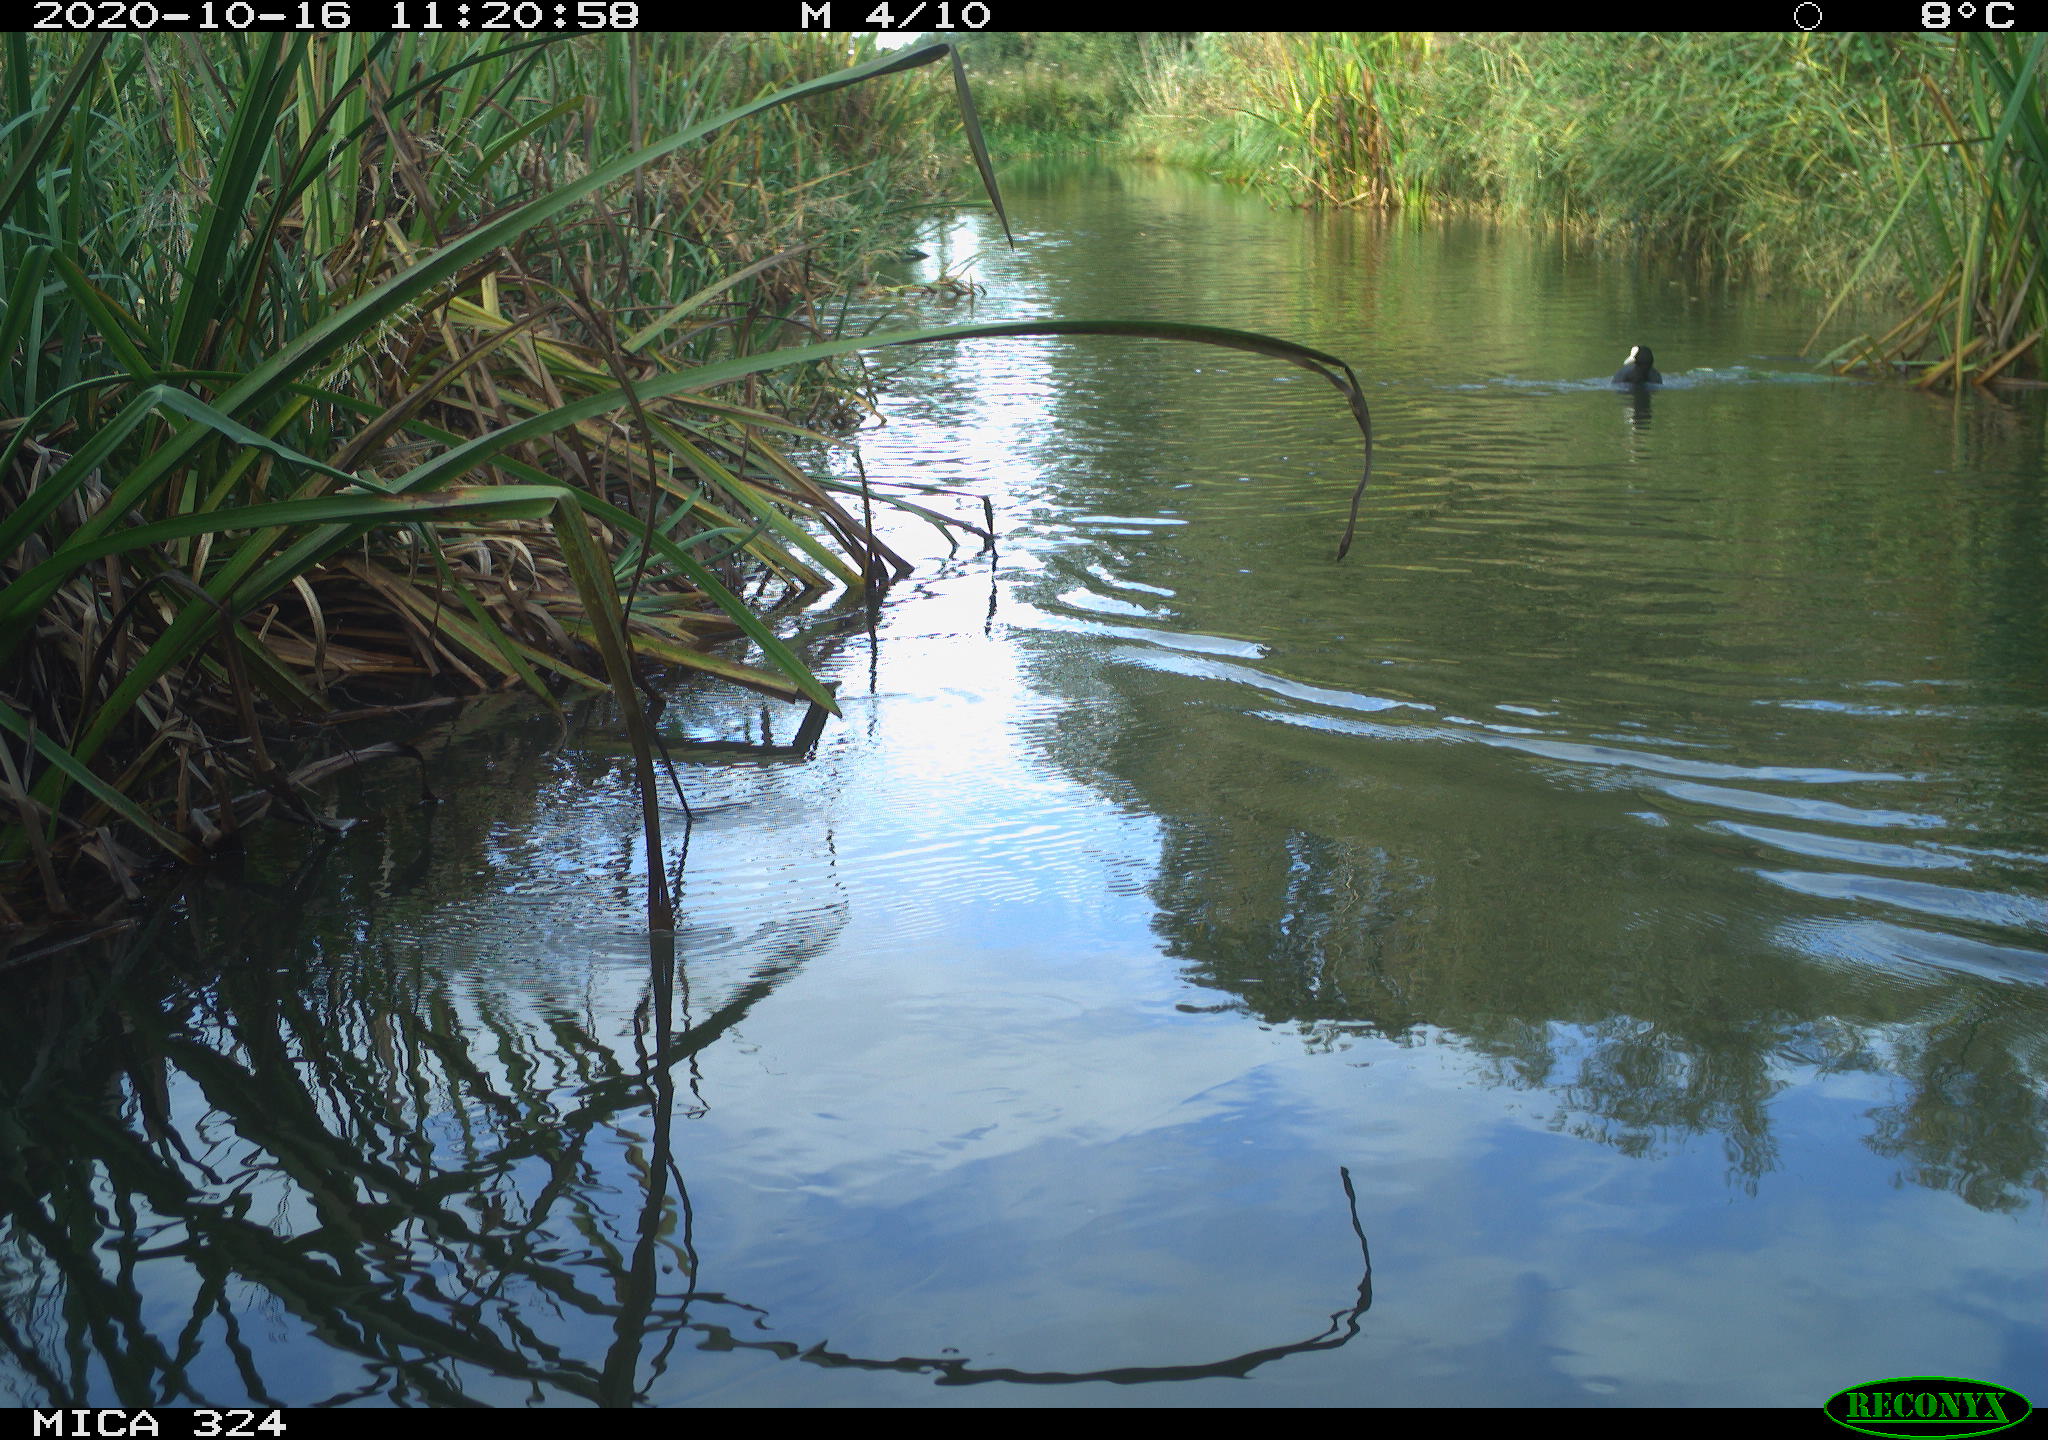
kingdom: Animalia
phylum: Chordata
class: Aves
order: Gruiformes
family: Rallidae
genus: Fulica
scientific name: Fulica atra
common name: Eurasian coot
